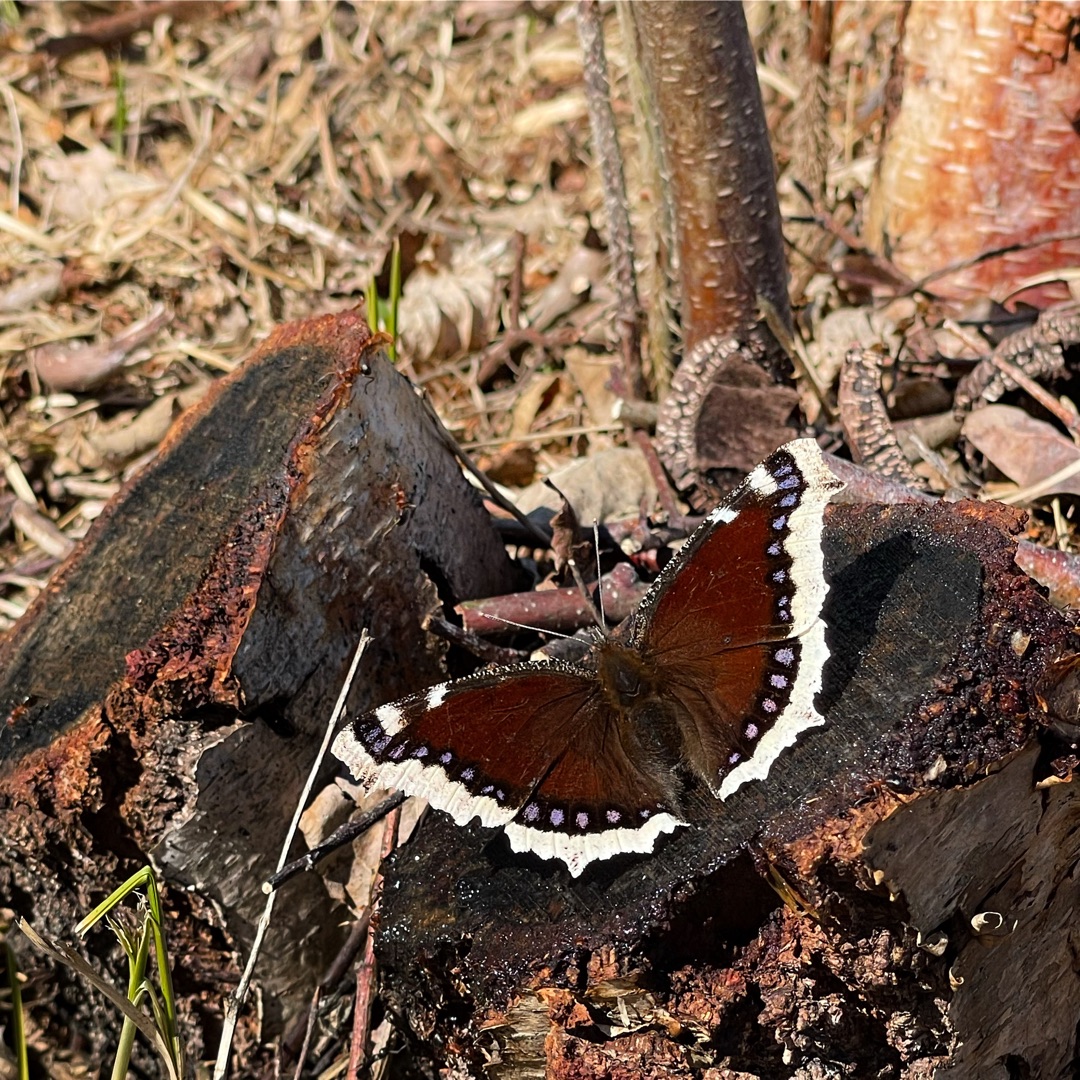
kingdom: Animalia
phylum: Arthropoda
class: Insecta
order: Lepidoptera
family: Nymphalidae
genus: Nymphalis
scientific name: Nymphalis antiopa
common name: Sørgekåbe
